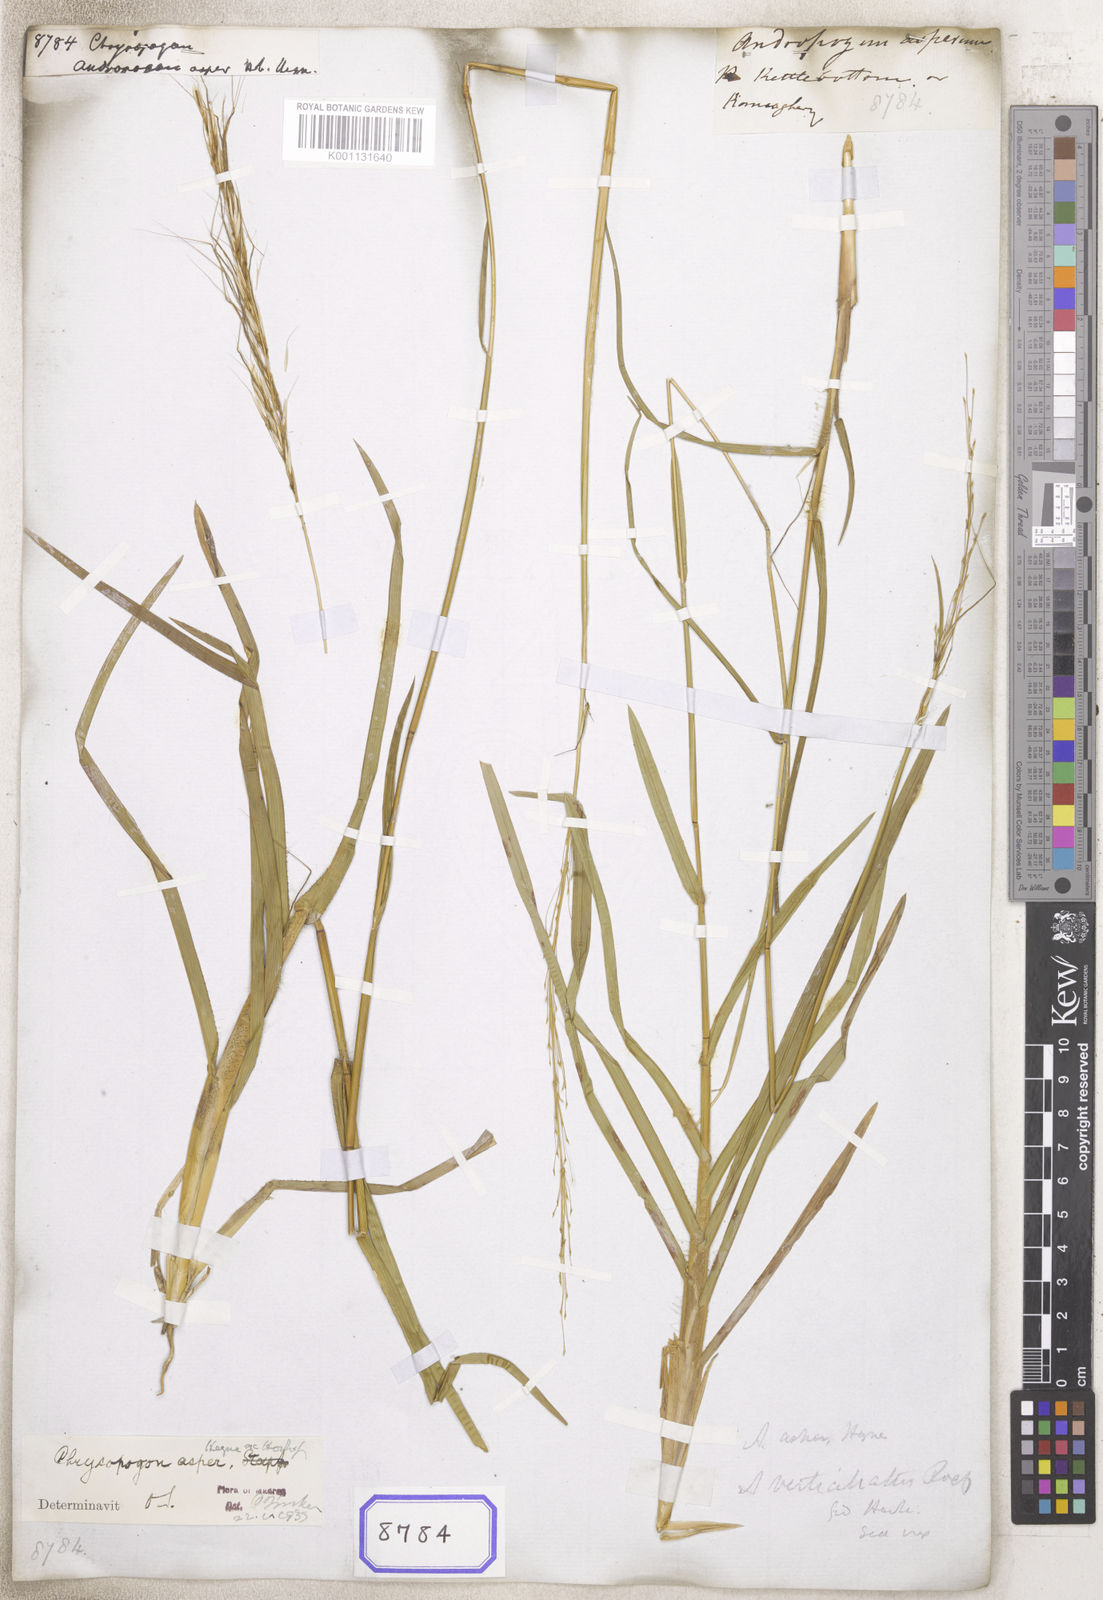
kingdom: Plantae
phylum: Tracheophyta
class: Liliopsida
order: Poales
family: Poaceae
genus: Chrysopogon
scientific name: Chrysopogon
